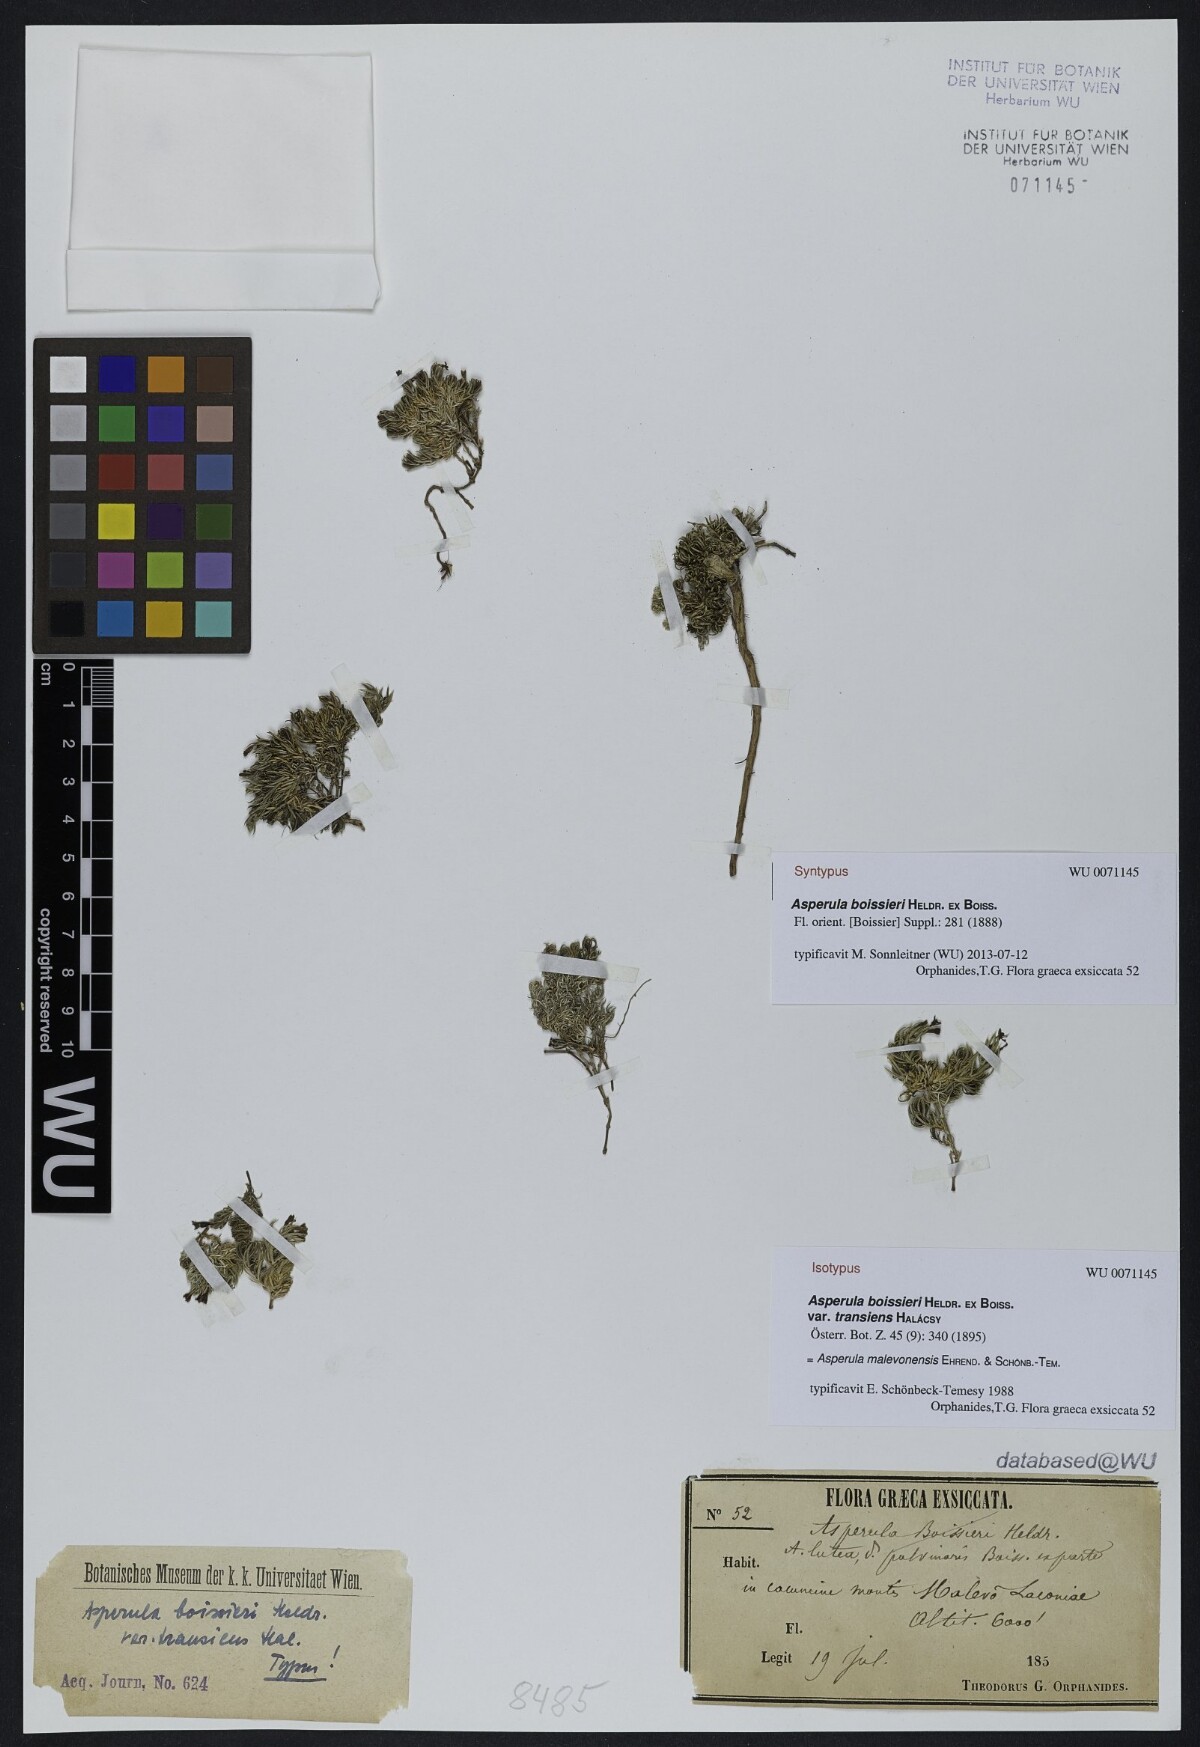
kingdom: Plantae
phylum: Tracheophyta
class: Magnoliopsida
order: Gentianales
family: Rubiaceae
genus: Cynanchica
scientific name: Cynanchica boissieri
